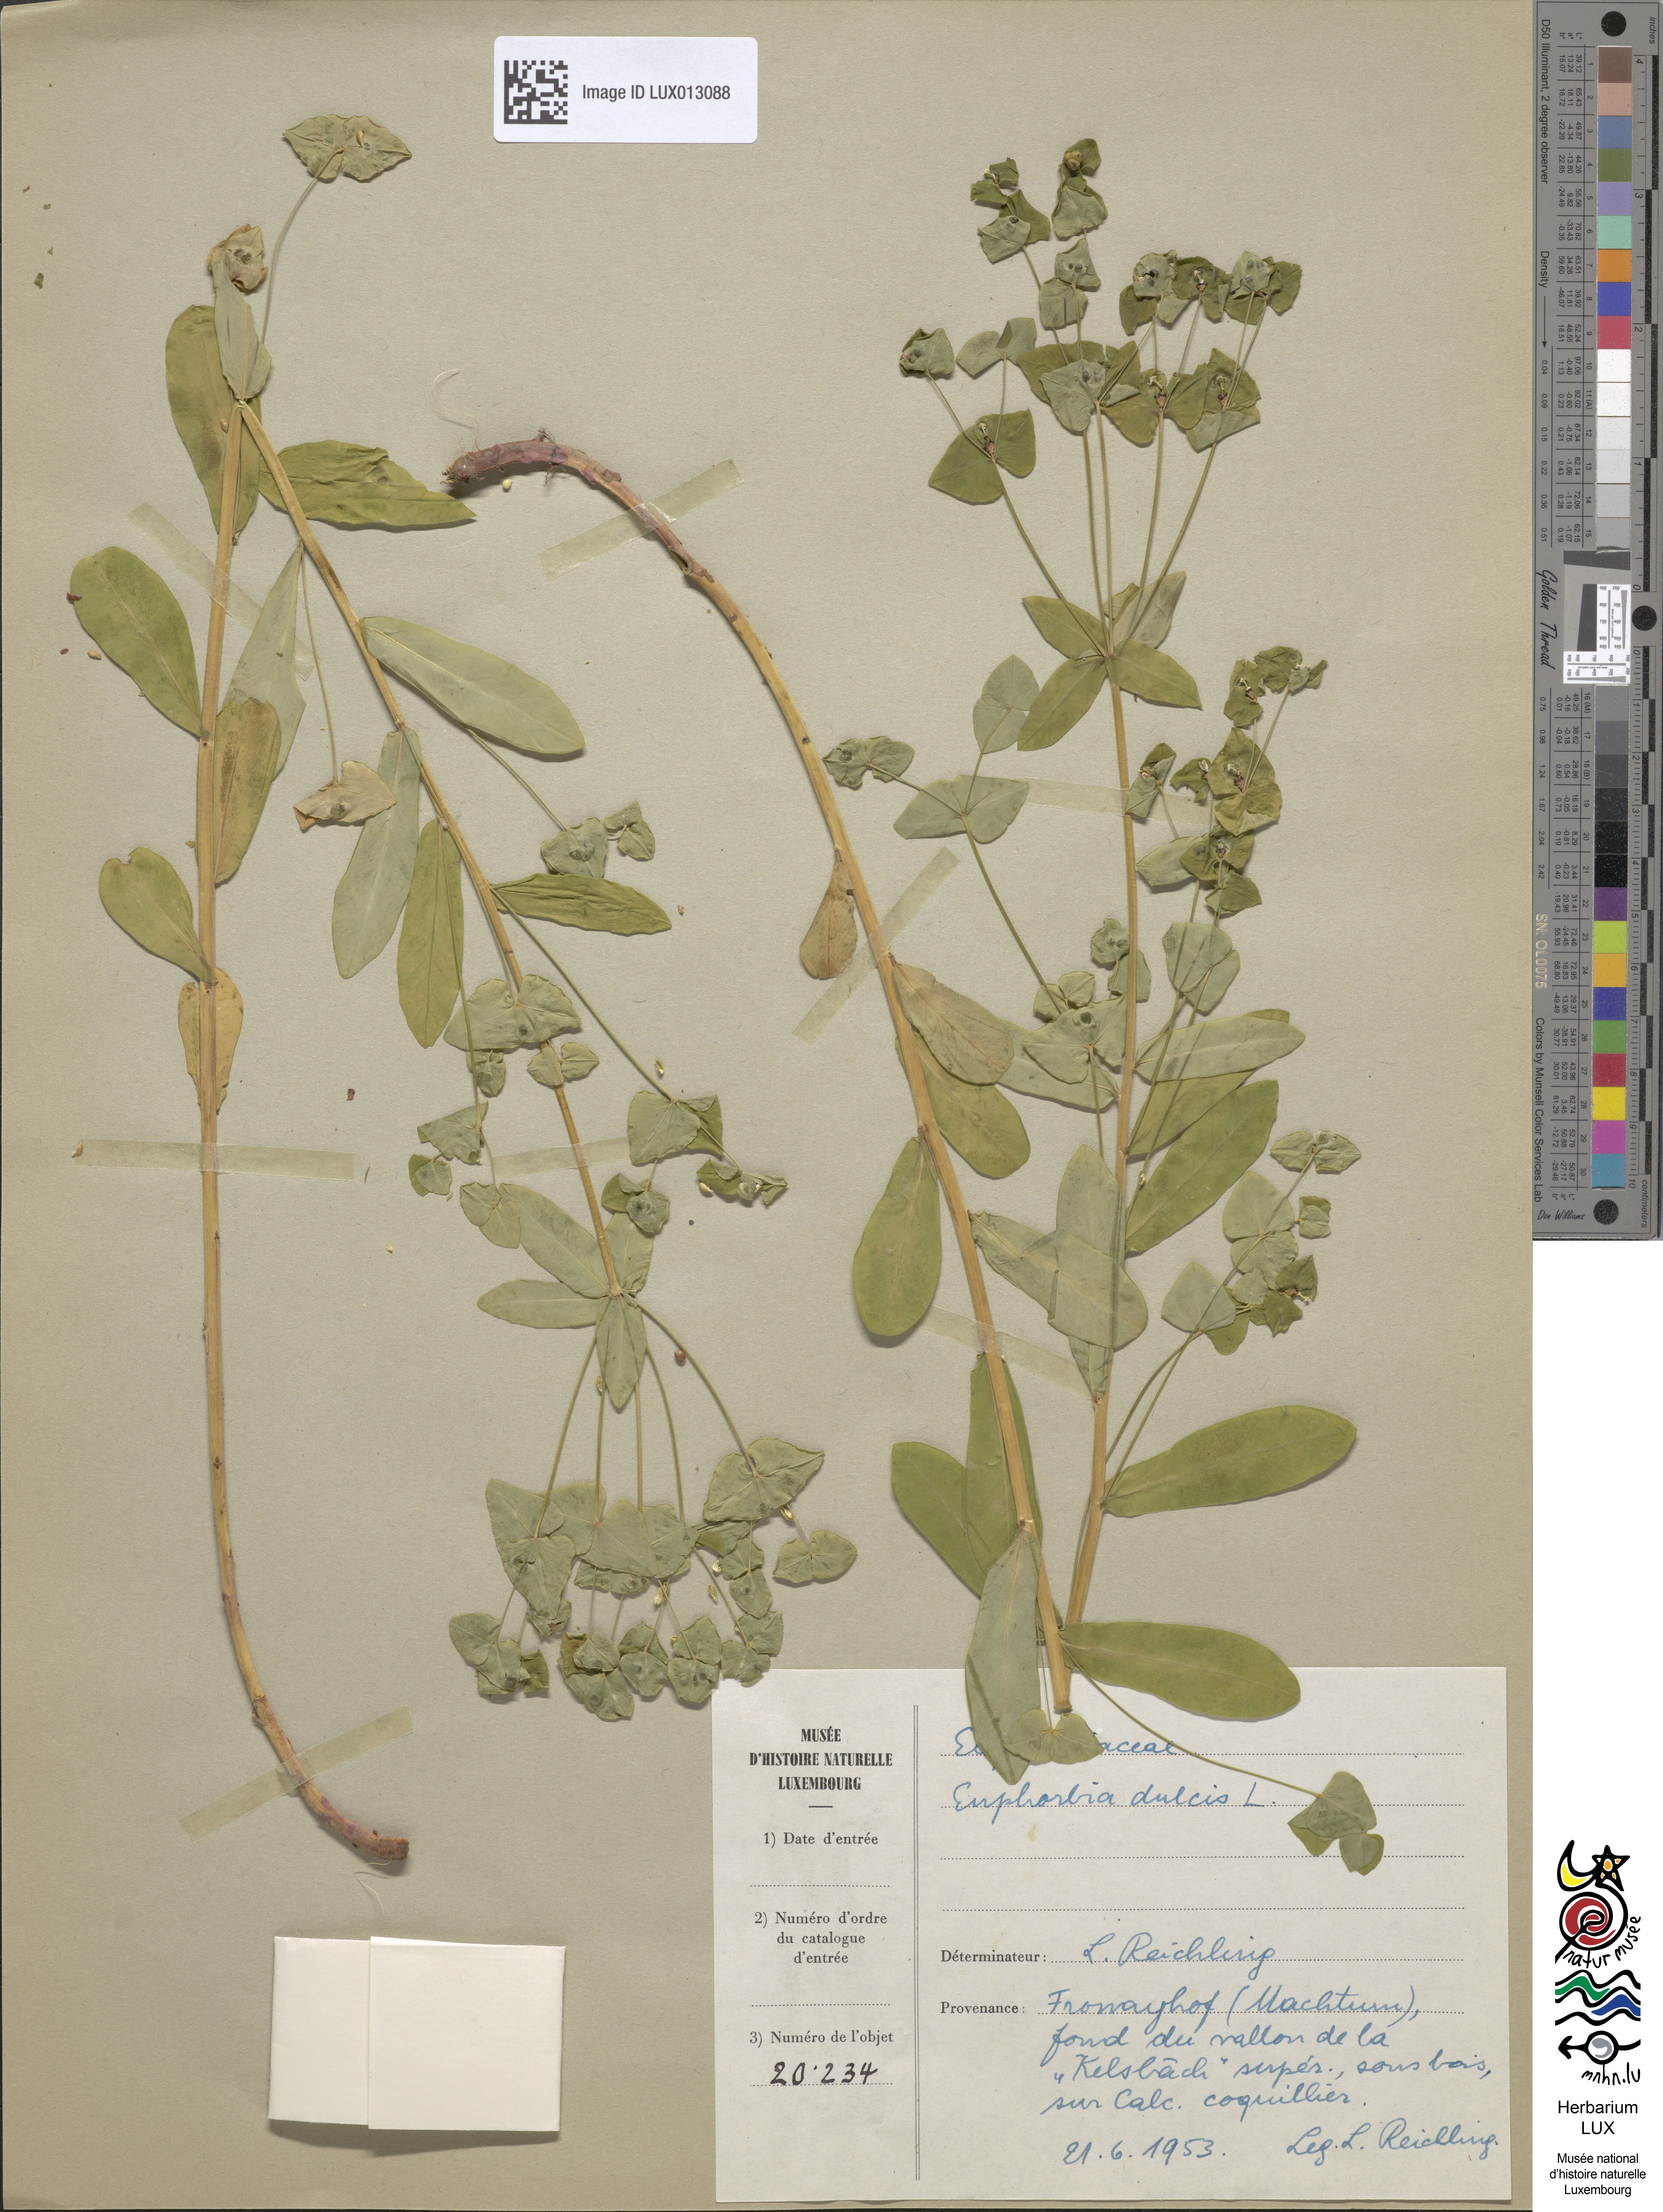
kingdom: Plantae
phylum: Tracheophyta
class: Magnoliopsida
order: Malpighiales
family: Euphorbiaceae
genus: Euphorbia
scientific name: Euphorbia dulcis
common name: Sweet spurge
